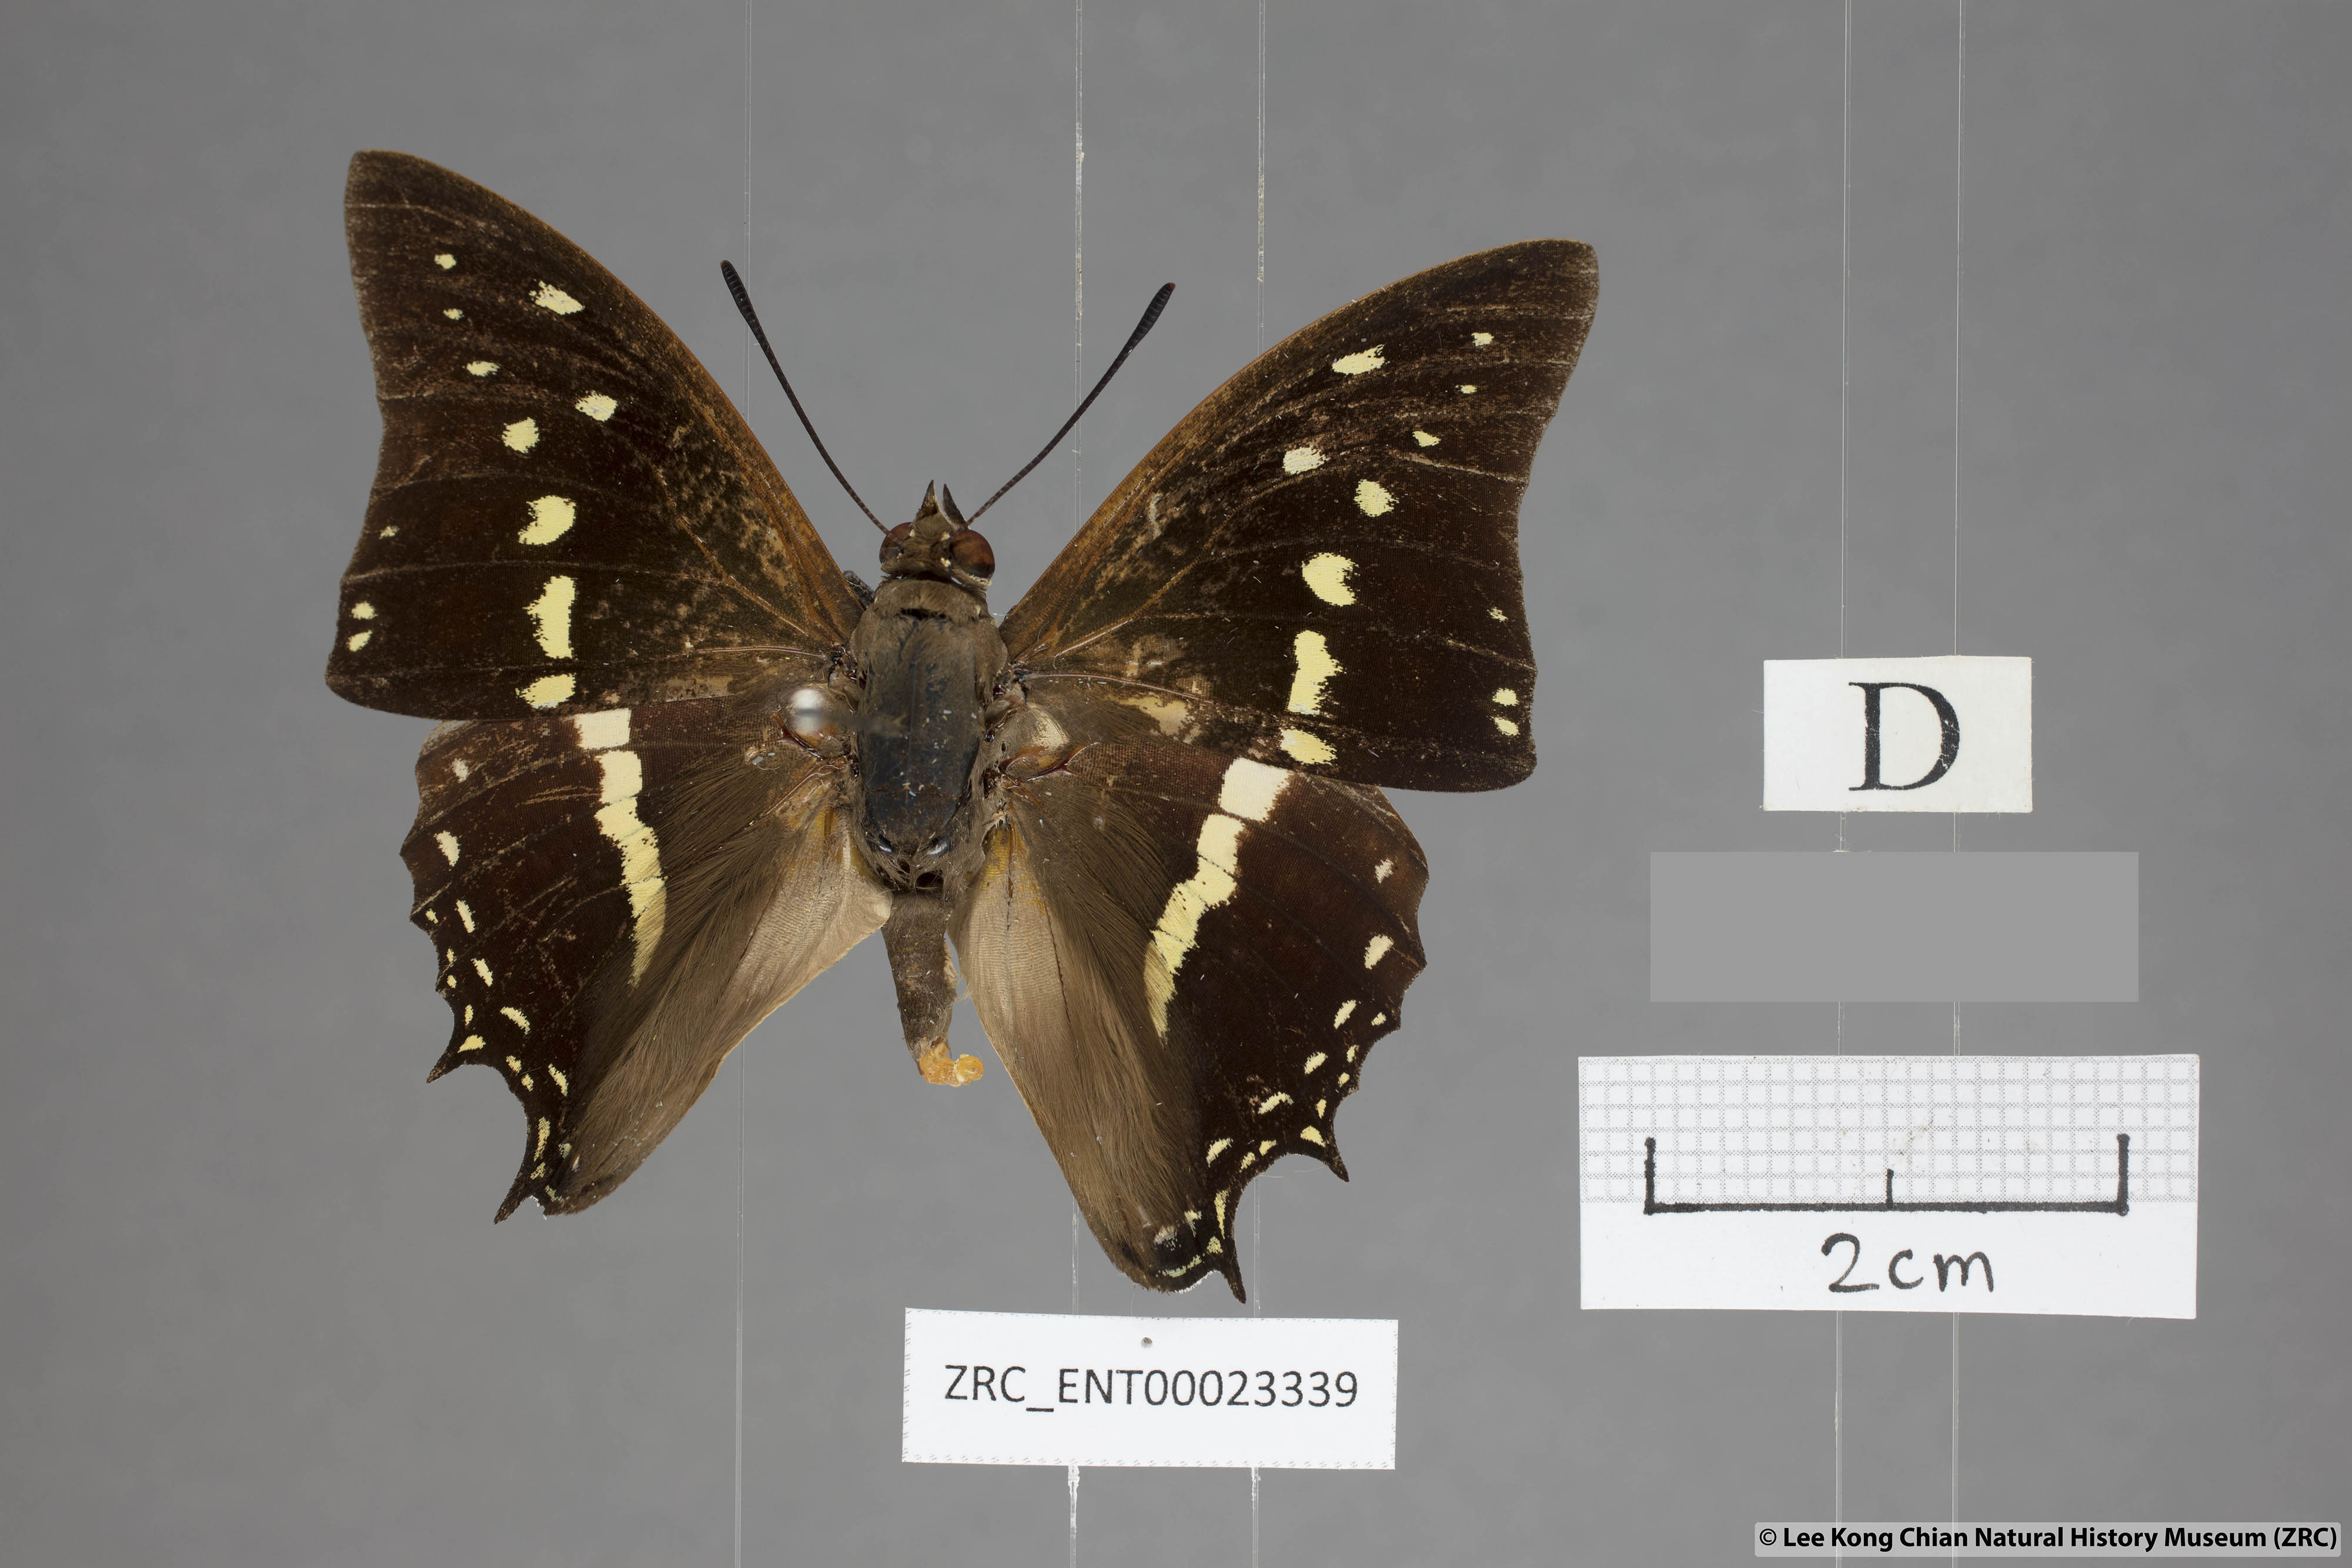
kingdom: Animalia
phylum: Arthropoda
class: Insecta
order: Lepidoptera
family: Nymphalidae
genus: Charaxes
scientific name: Charaxes solon
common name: Black rajah
